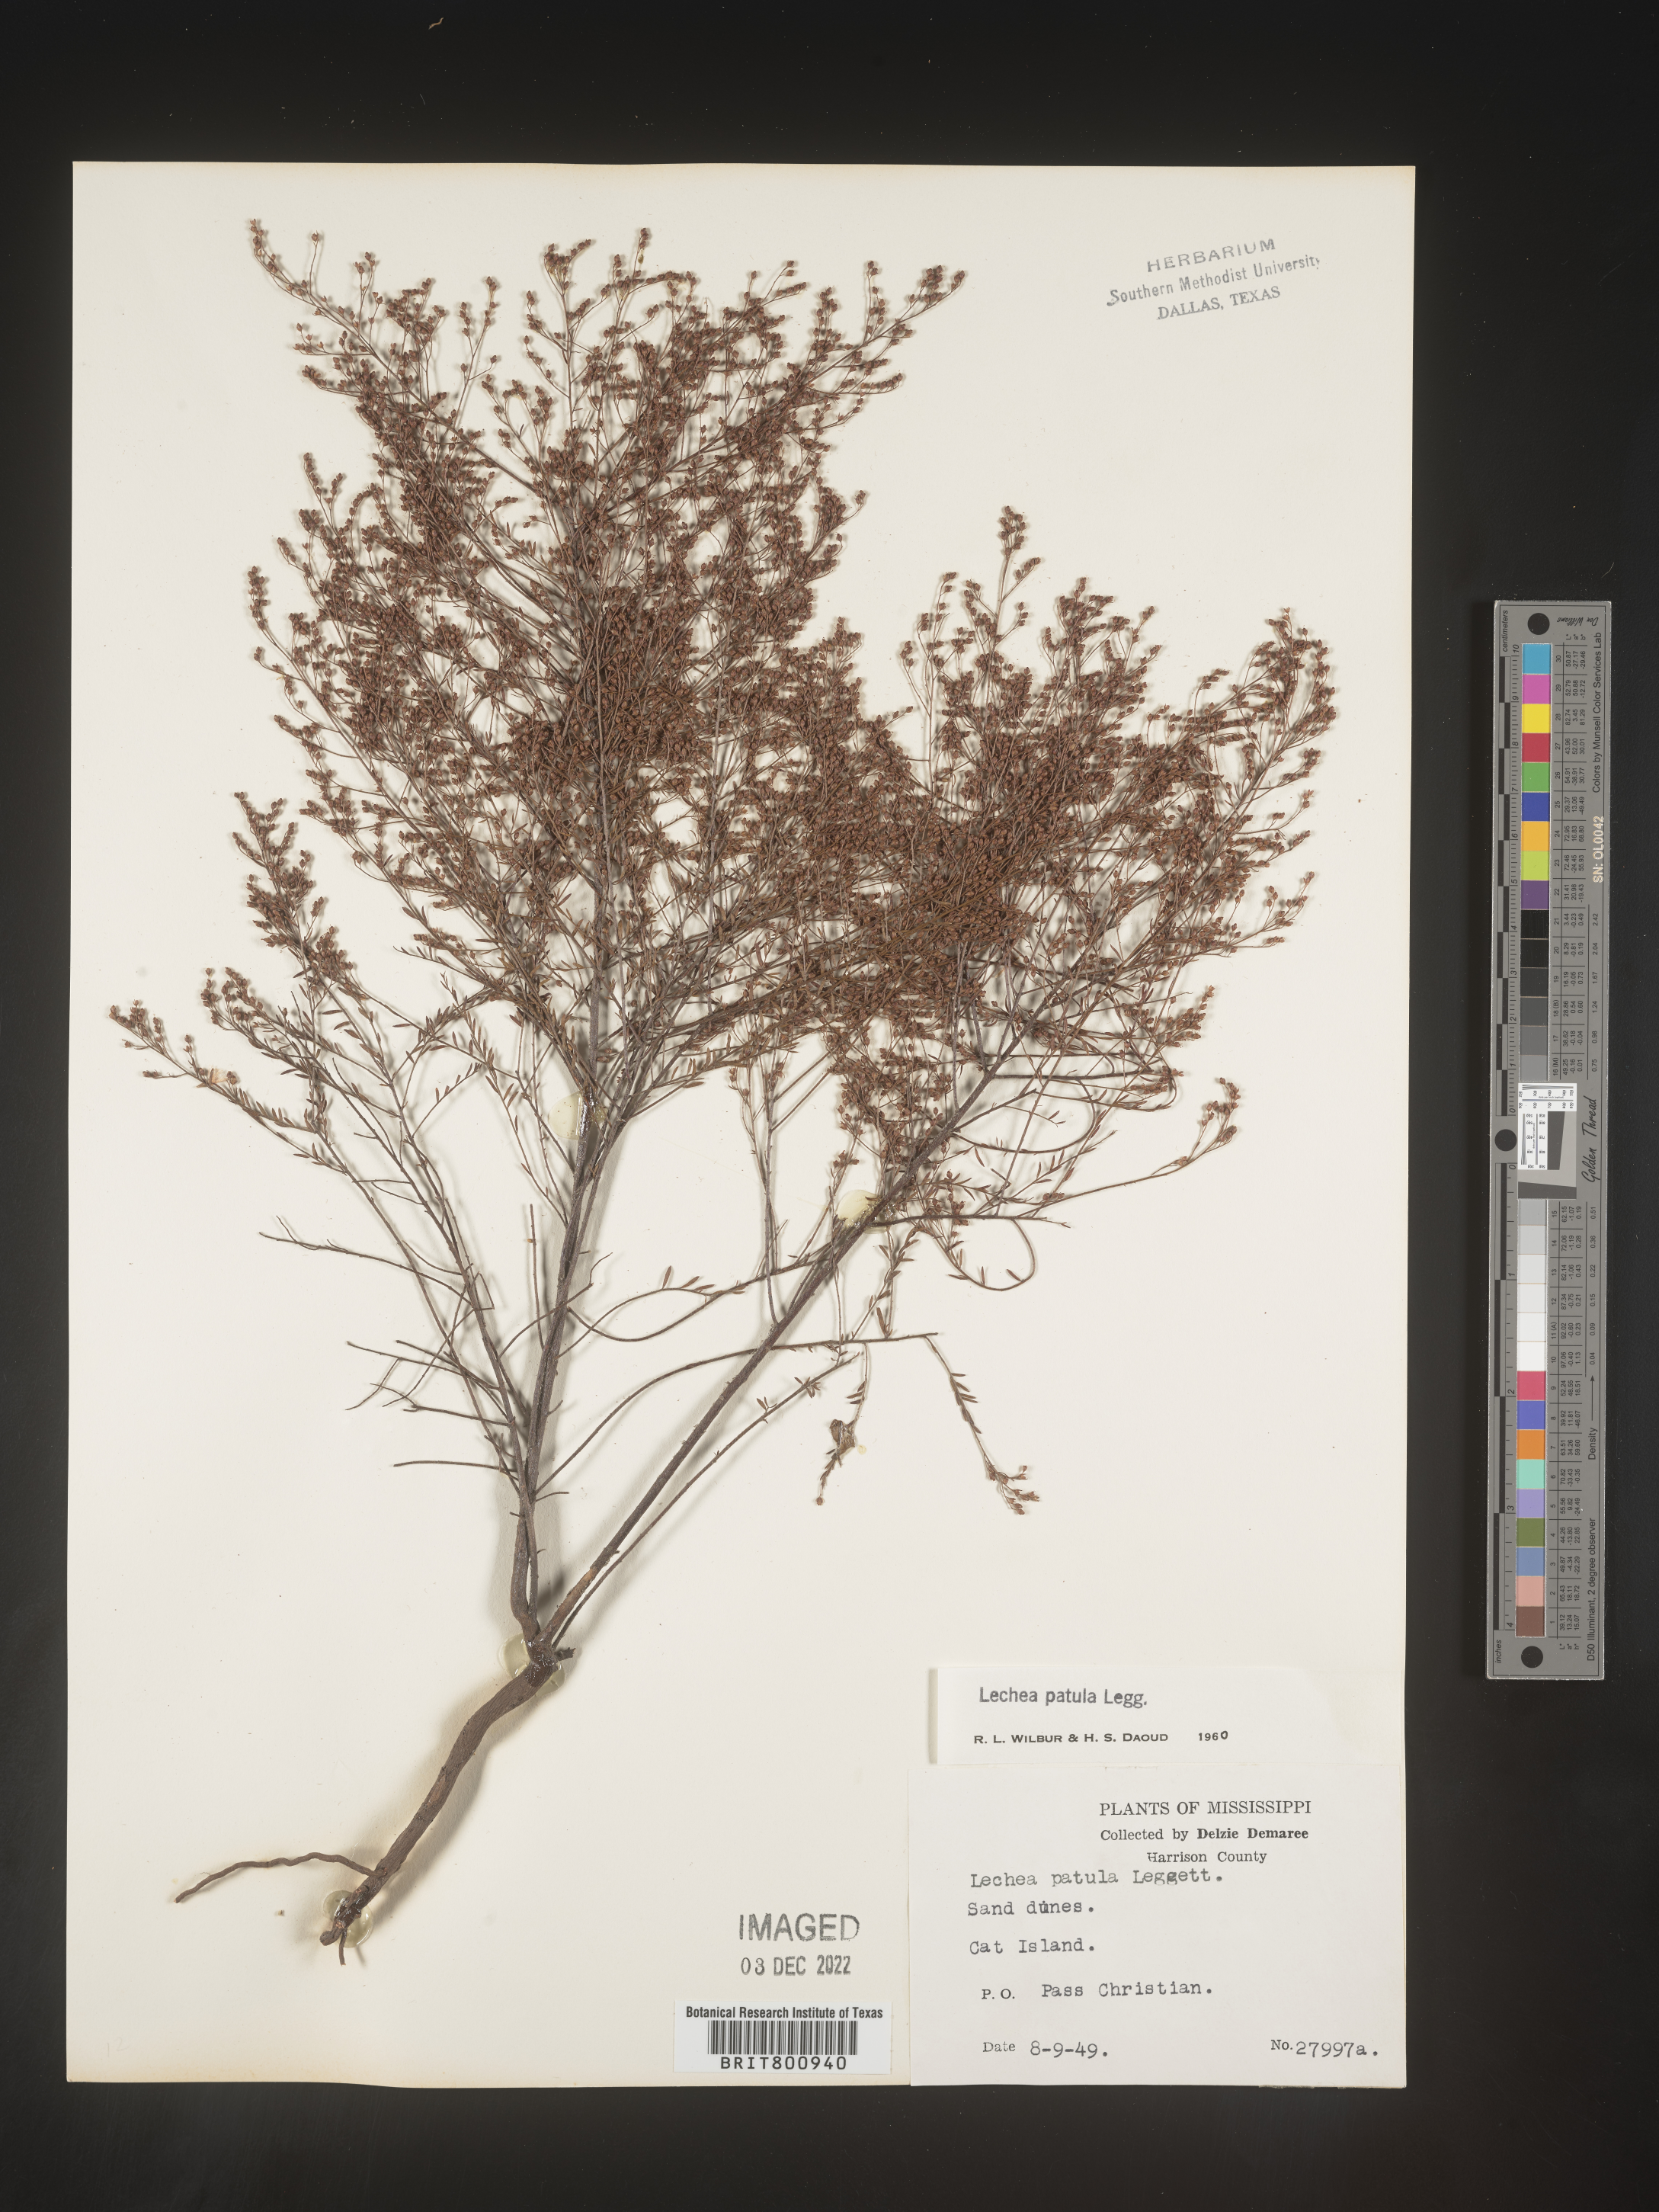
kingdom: Plantae
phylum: Tracheophyta
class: Magnoliopsida
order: Malvales
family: Cistaceae
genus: Lechea
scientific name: Lechea sessiliflora
